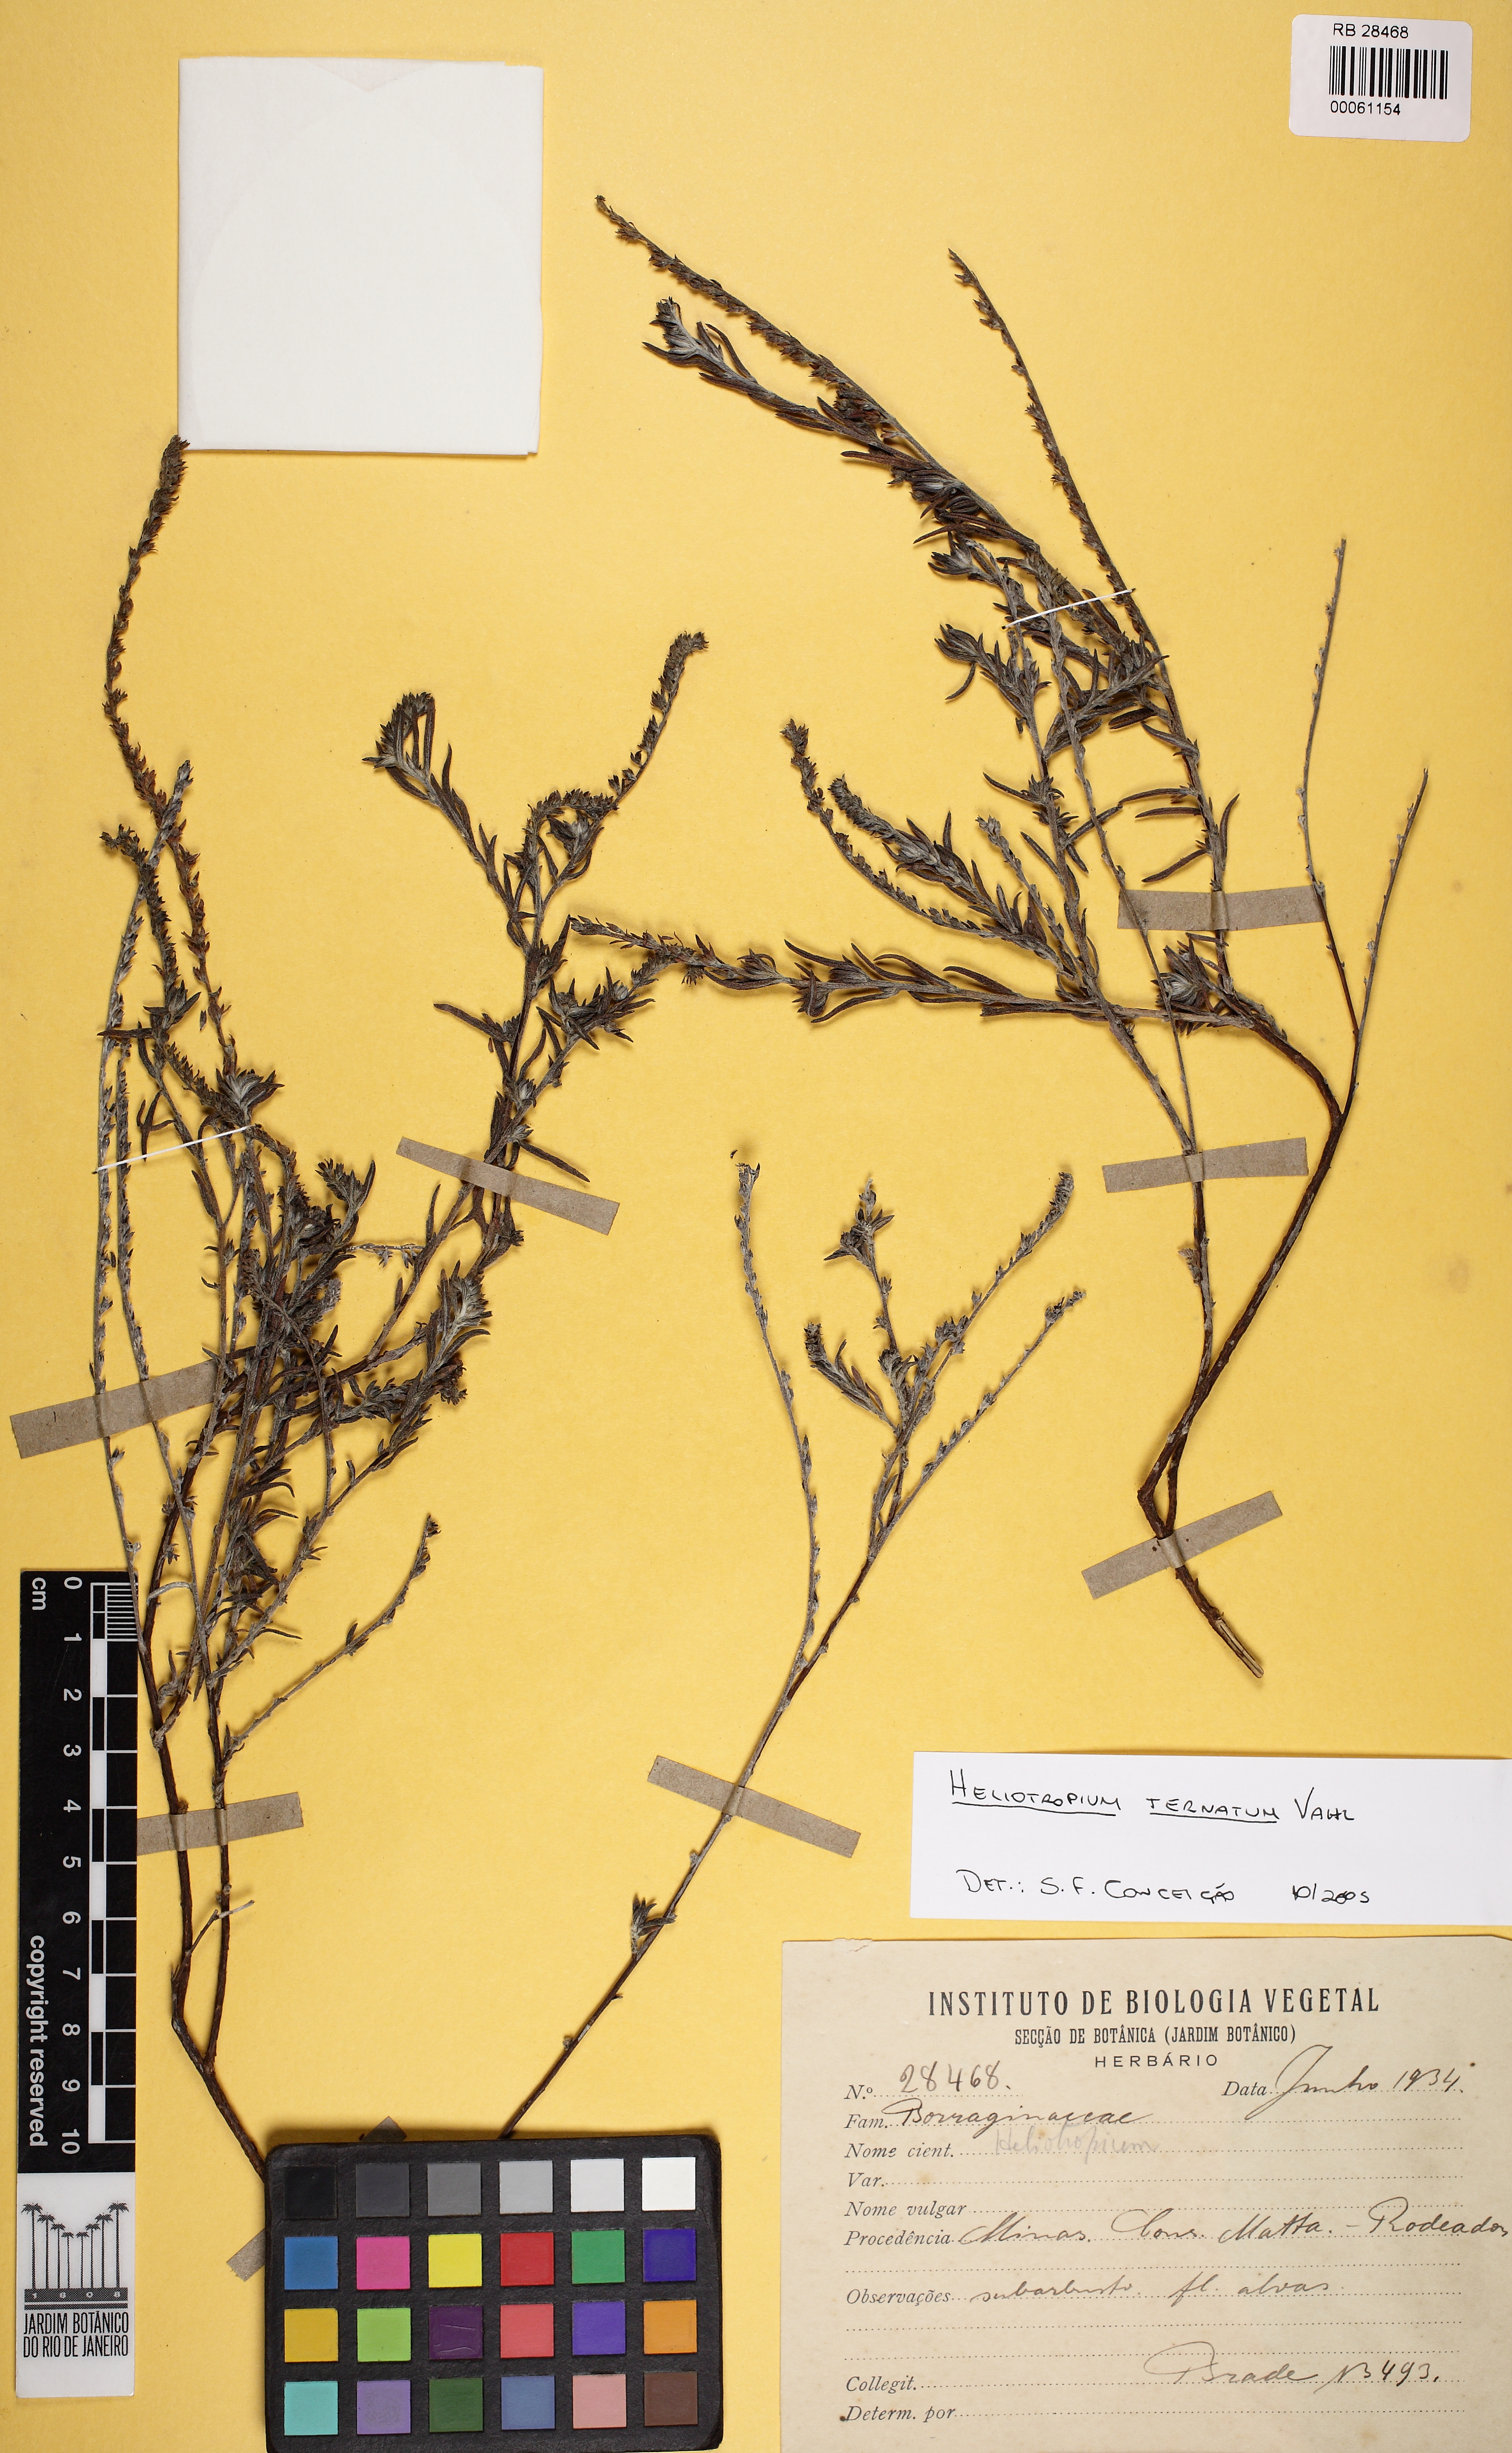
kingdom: Plantae
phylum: Tracheophyta
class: Magnoliopsida
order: Boraginales
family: Heliotropiaceae
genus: Heliotropium
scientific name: Heliotropium
